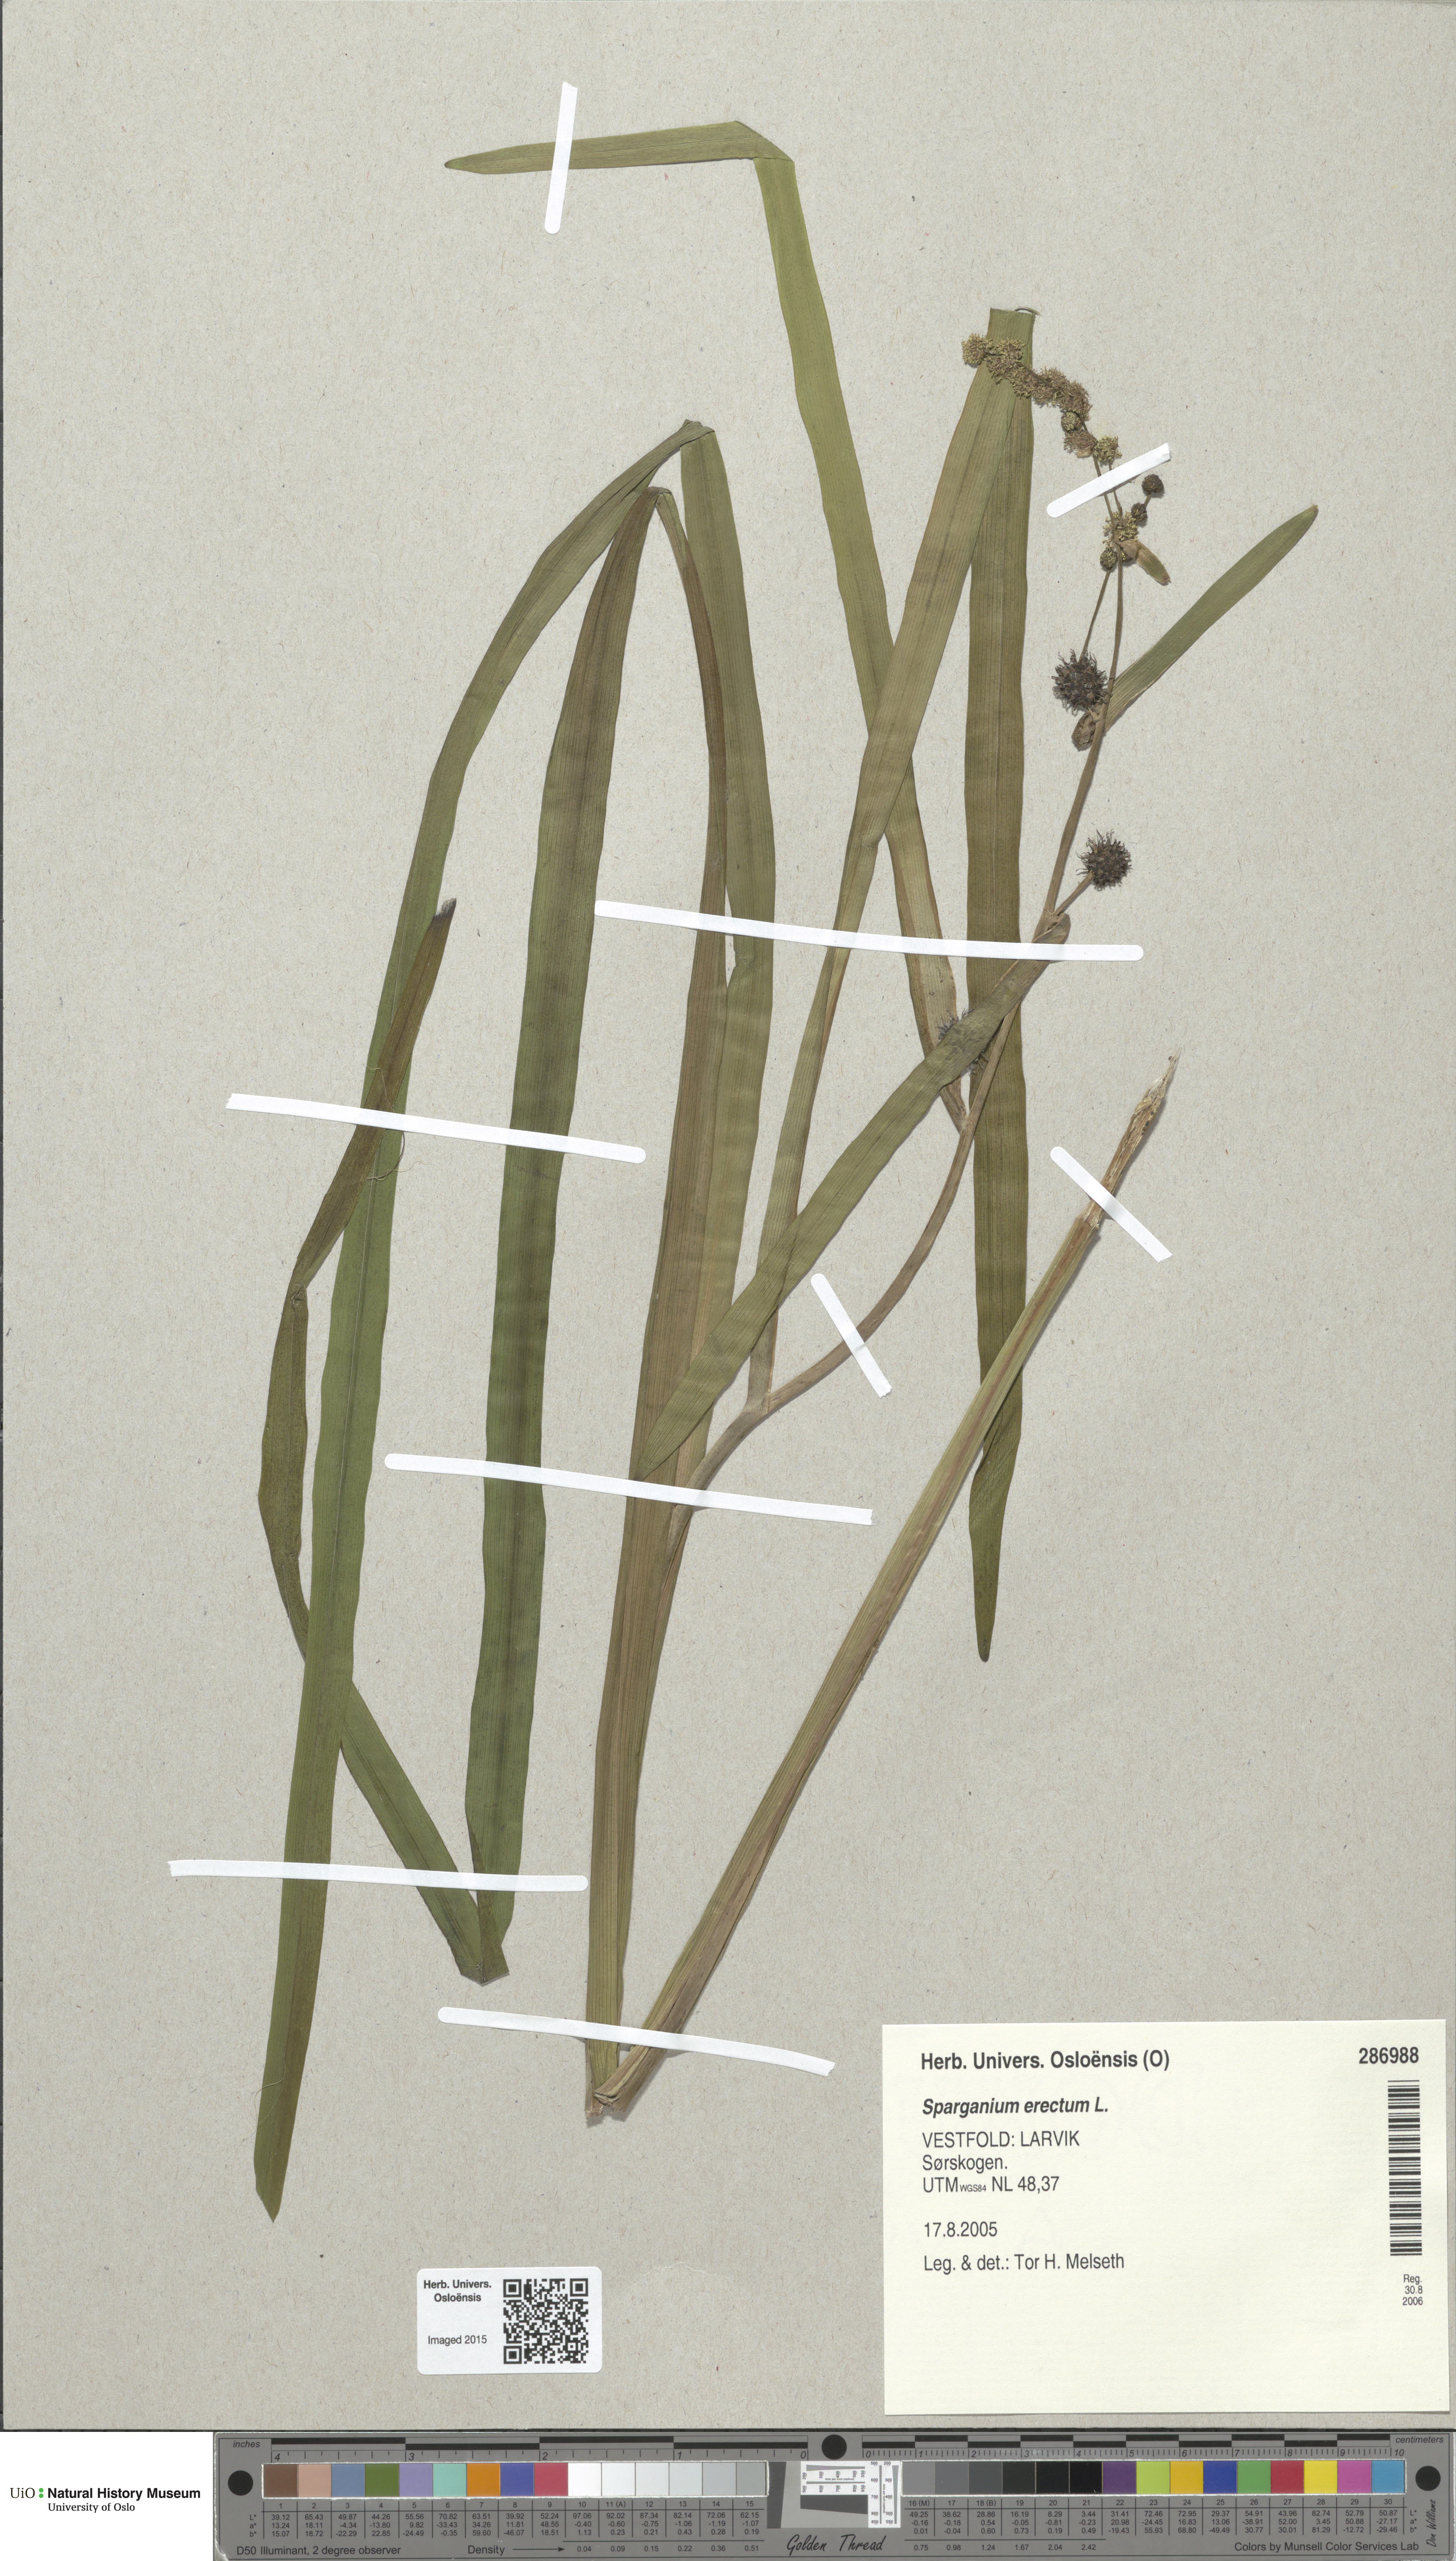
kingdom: Plantae
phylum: Tracheophyta
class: Liliopsida
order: Poales
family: Typhaceae
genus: Sparganium
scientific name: Sparganium erectum
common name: Branched bur-reed
